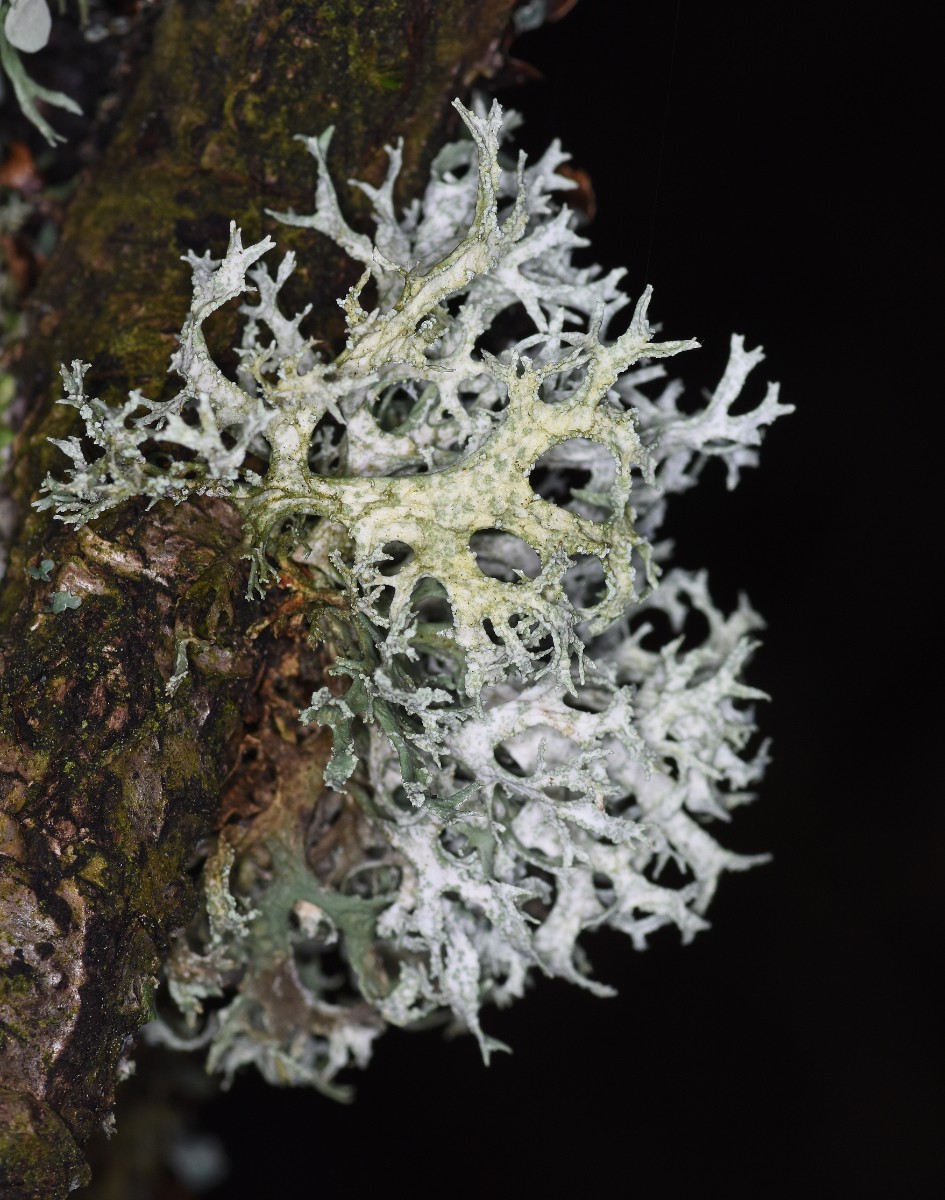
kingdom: Fungi
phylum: Ascomycota
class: Lecanoromycetes
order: Lecanorales
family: Parmeliaceae
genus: Evernia
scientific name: Evernia prunastri
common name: almindelig slåenlav
